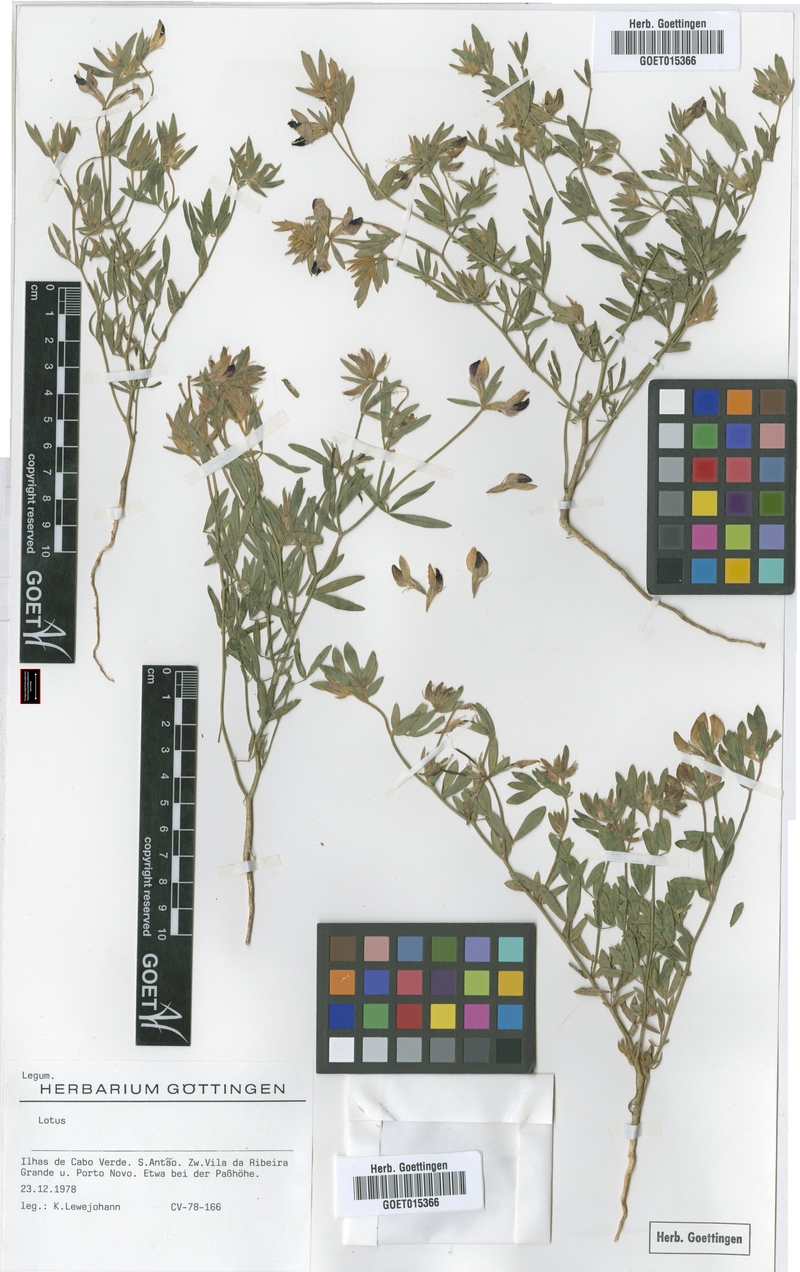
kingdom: Plantae
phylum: Tracheophyta
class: Magnoliopsida
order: Fabales
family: Fabaceae
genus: Lotus
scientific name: Lotus
